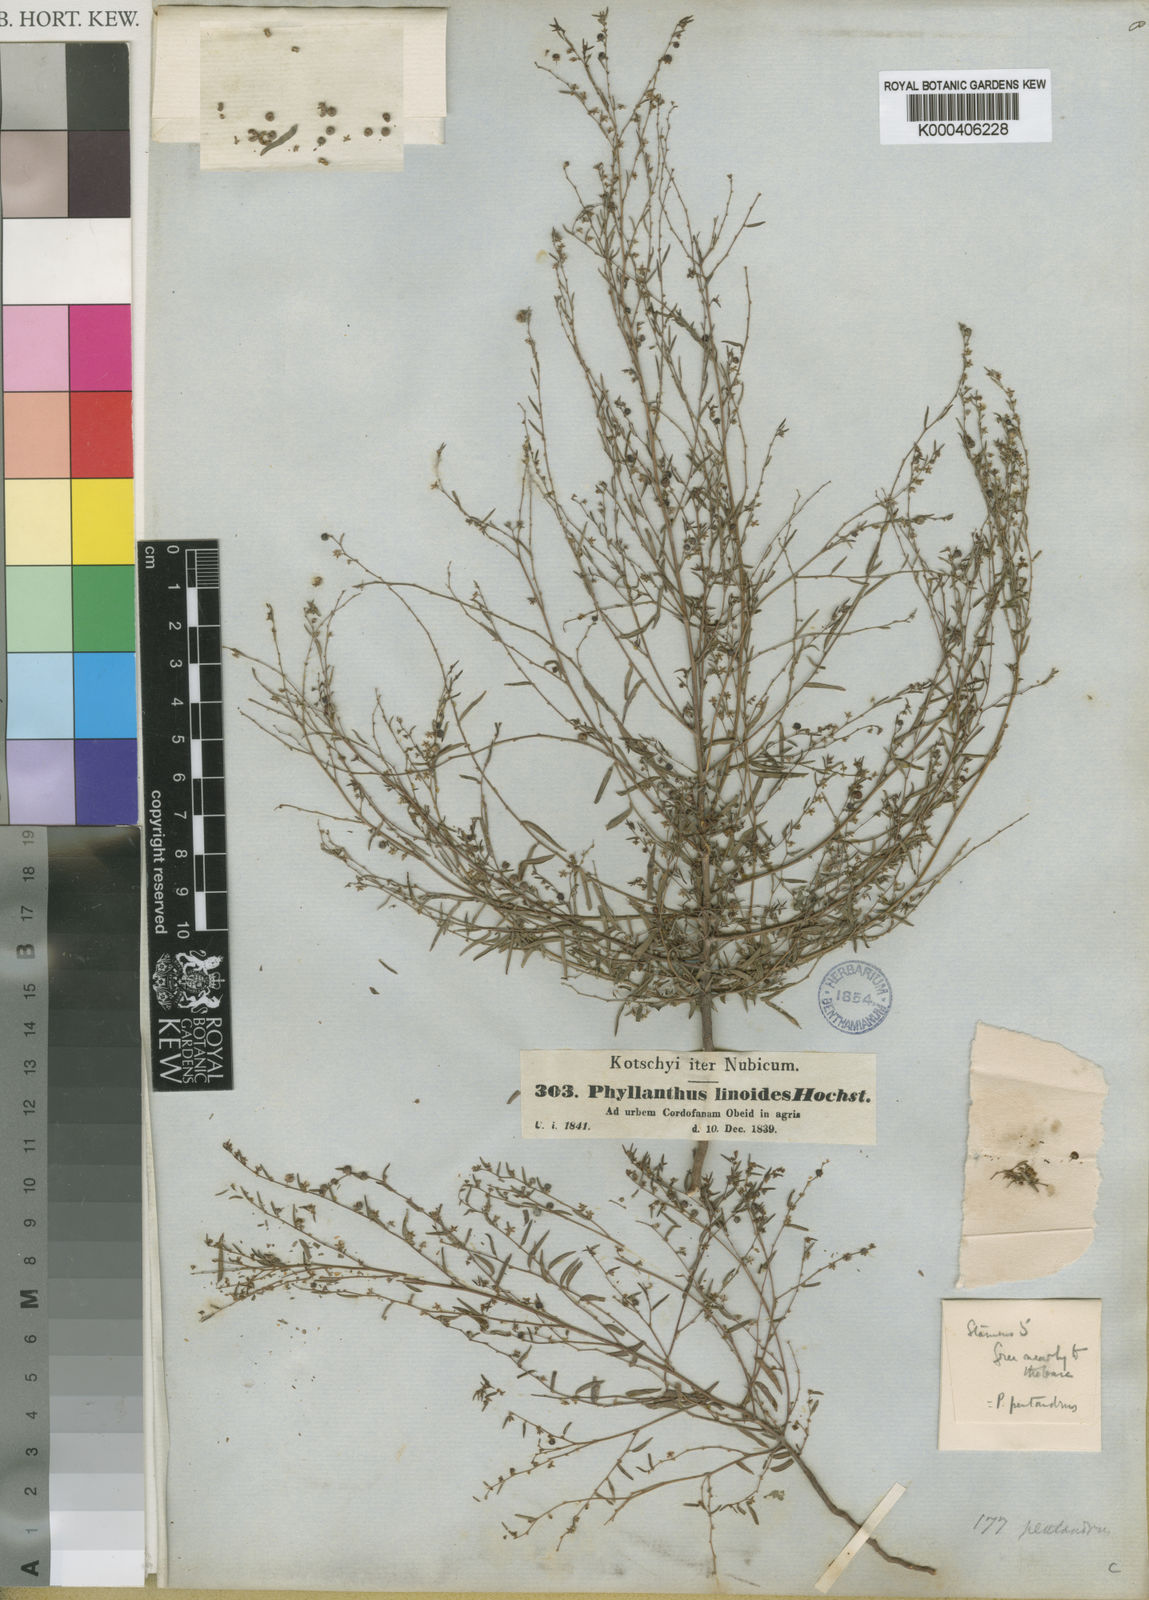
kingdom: Plantae
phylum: Tracheophyta
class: Magnoliopsida
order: Malpighiales
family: Phyllanthaceae
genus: Phyllanthus
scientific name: Phyllanthus pentandrus
